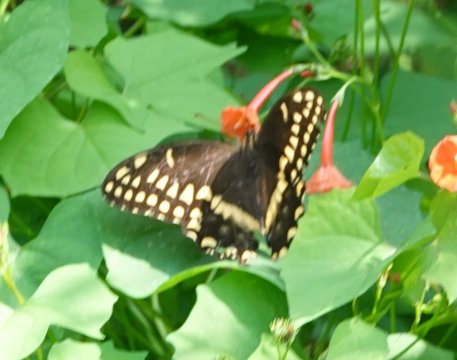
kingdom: Animalia
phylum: Arthropoda
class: Insecta
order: Lepidoptera
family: Papilionidae
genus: Pterourus
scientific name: Pterourus palamedes
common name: Palamedes Swallowtail
